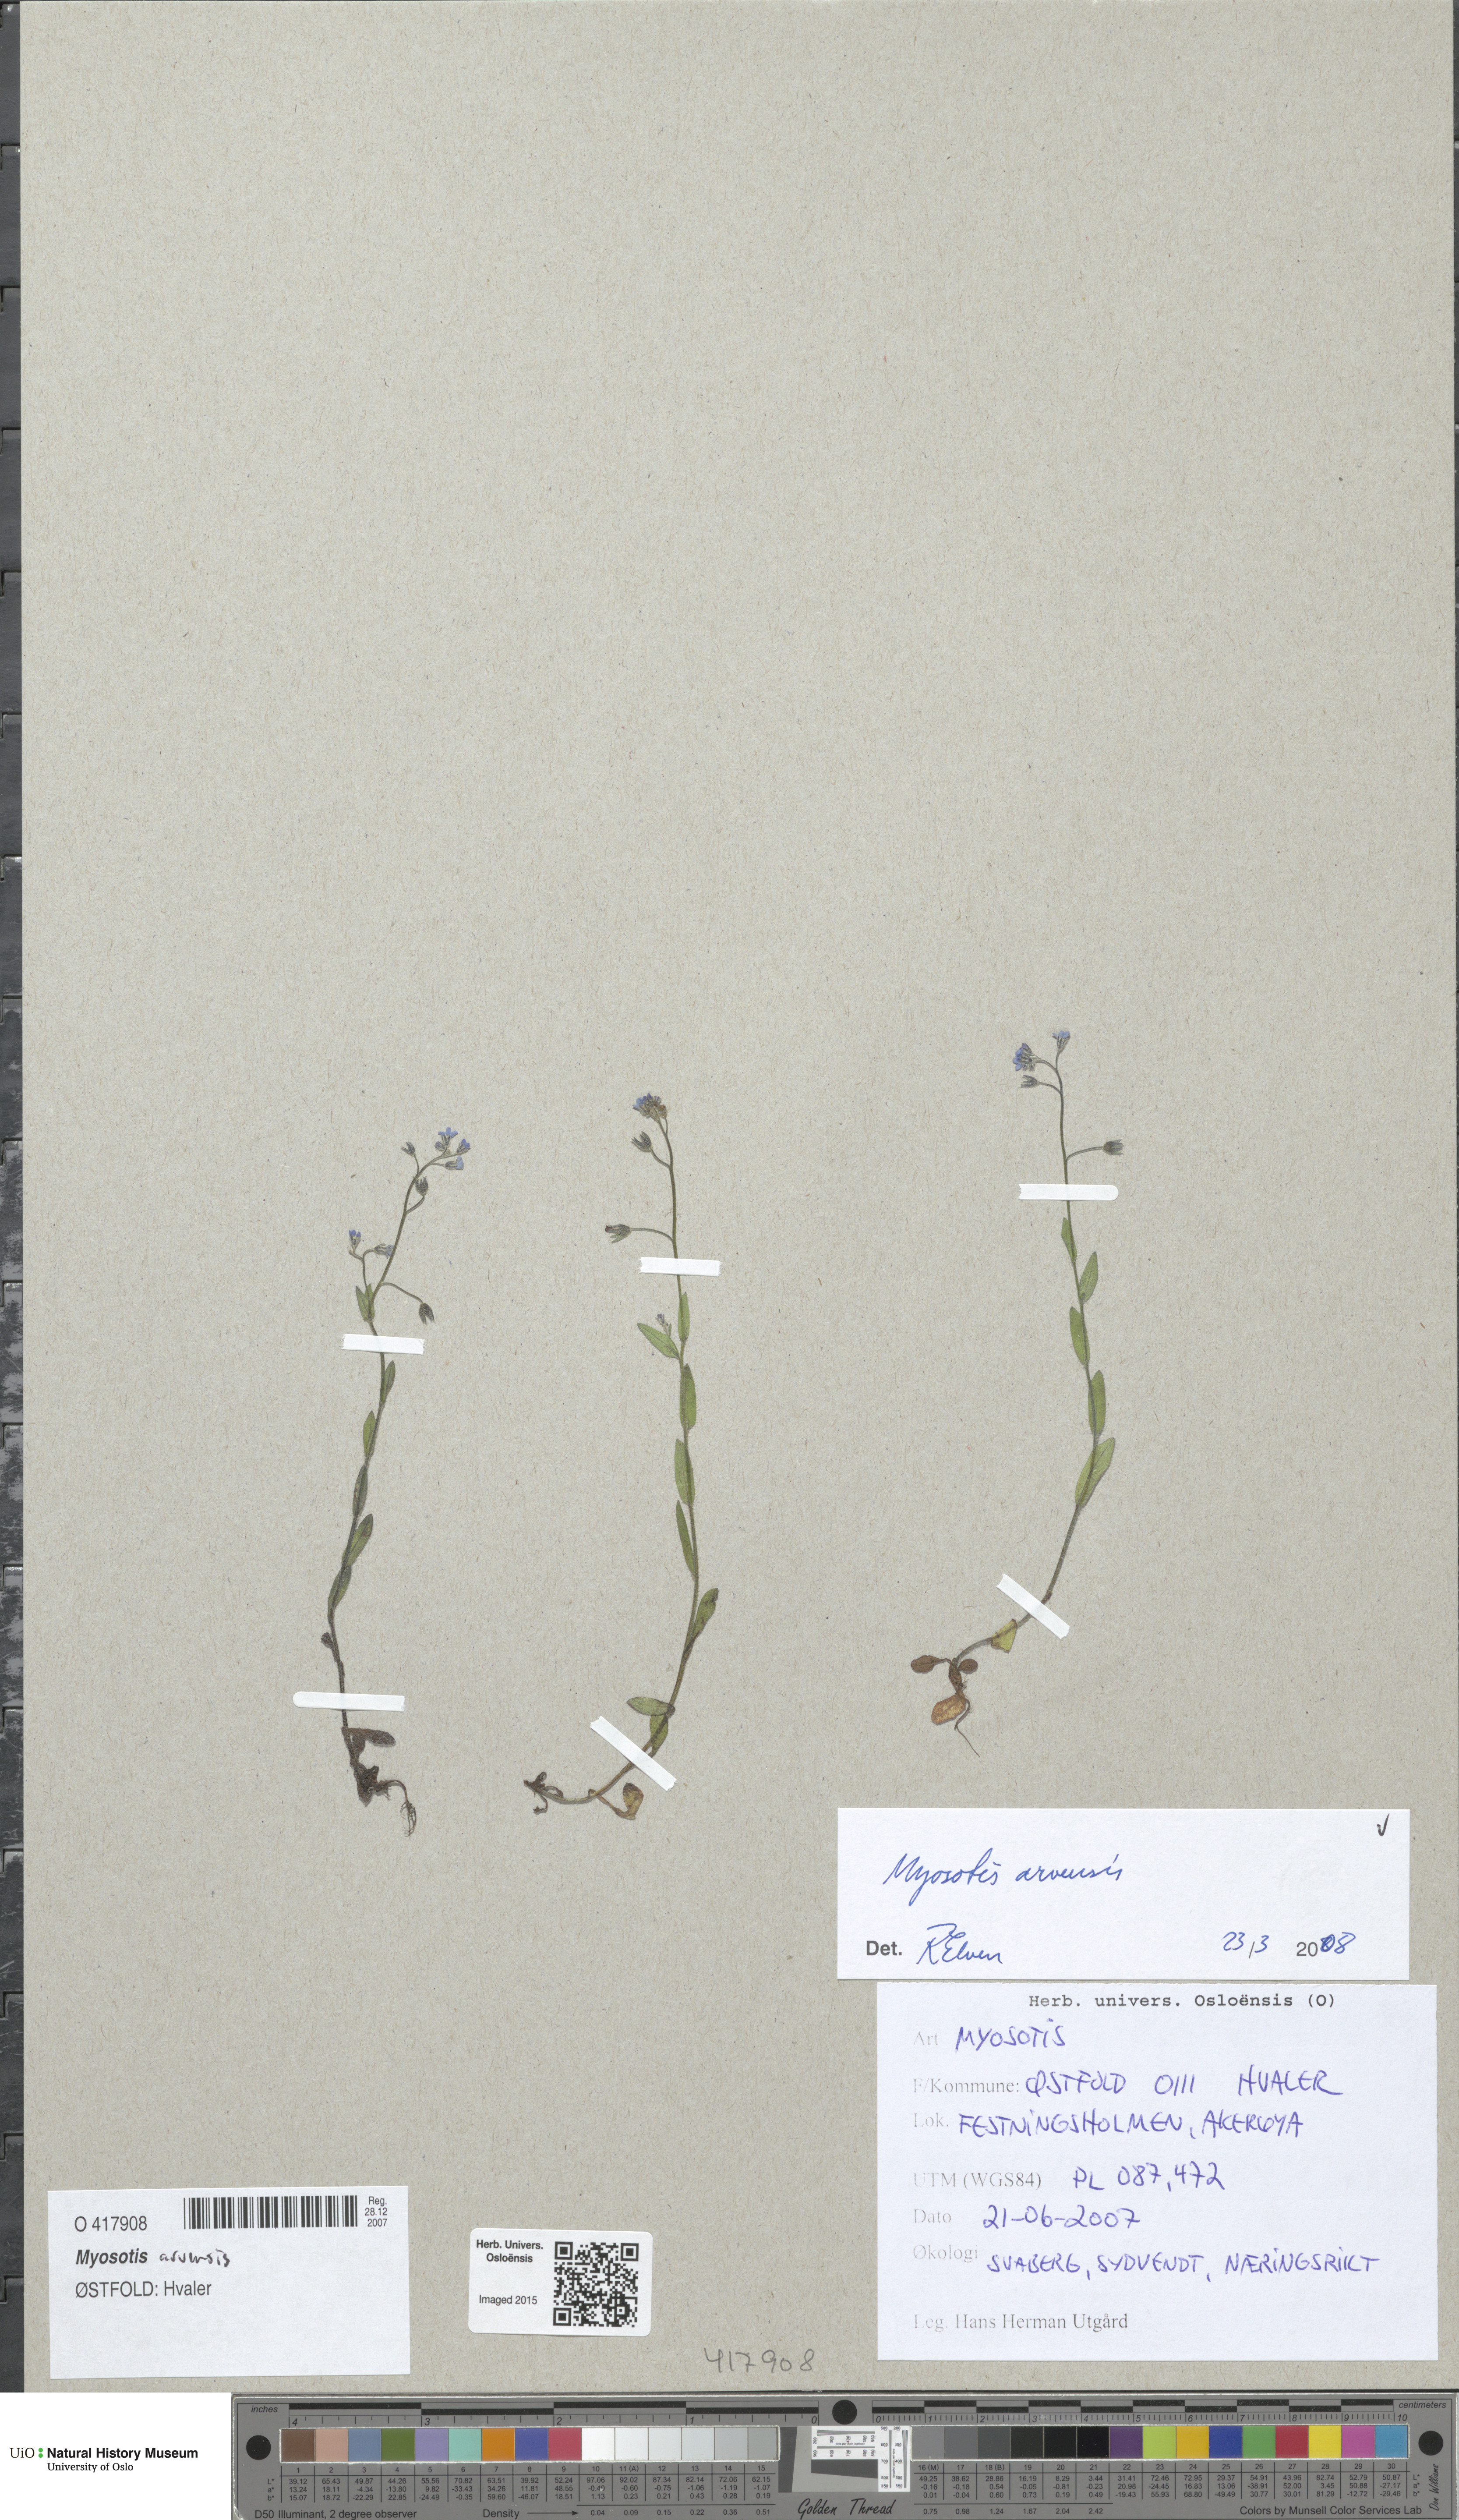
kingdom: Plantae
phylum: Tracheophyta
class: Magnoliopsida
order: Boraginales
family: Boraginaceae
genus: Myosotis
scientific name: Myosotis arvensis
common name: Field forget-me-not
